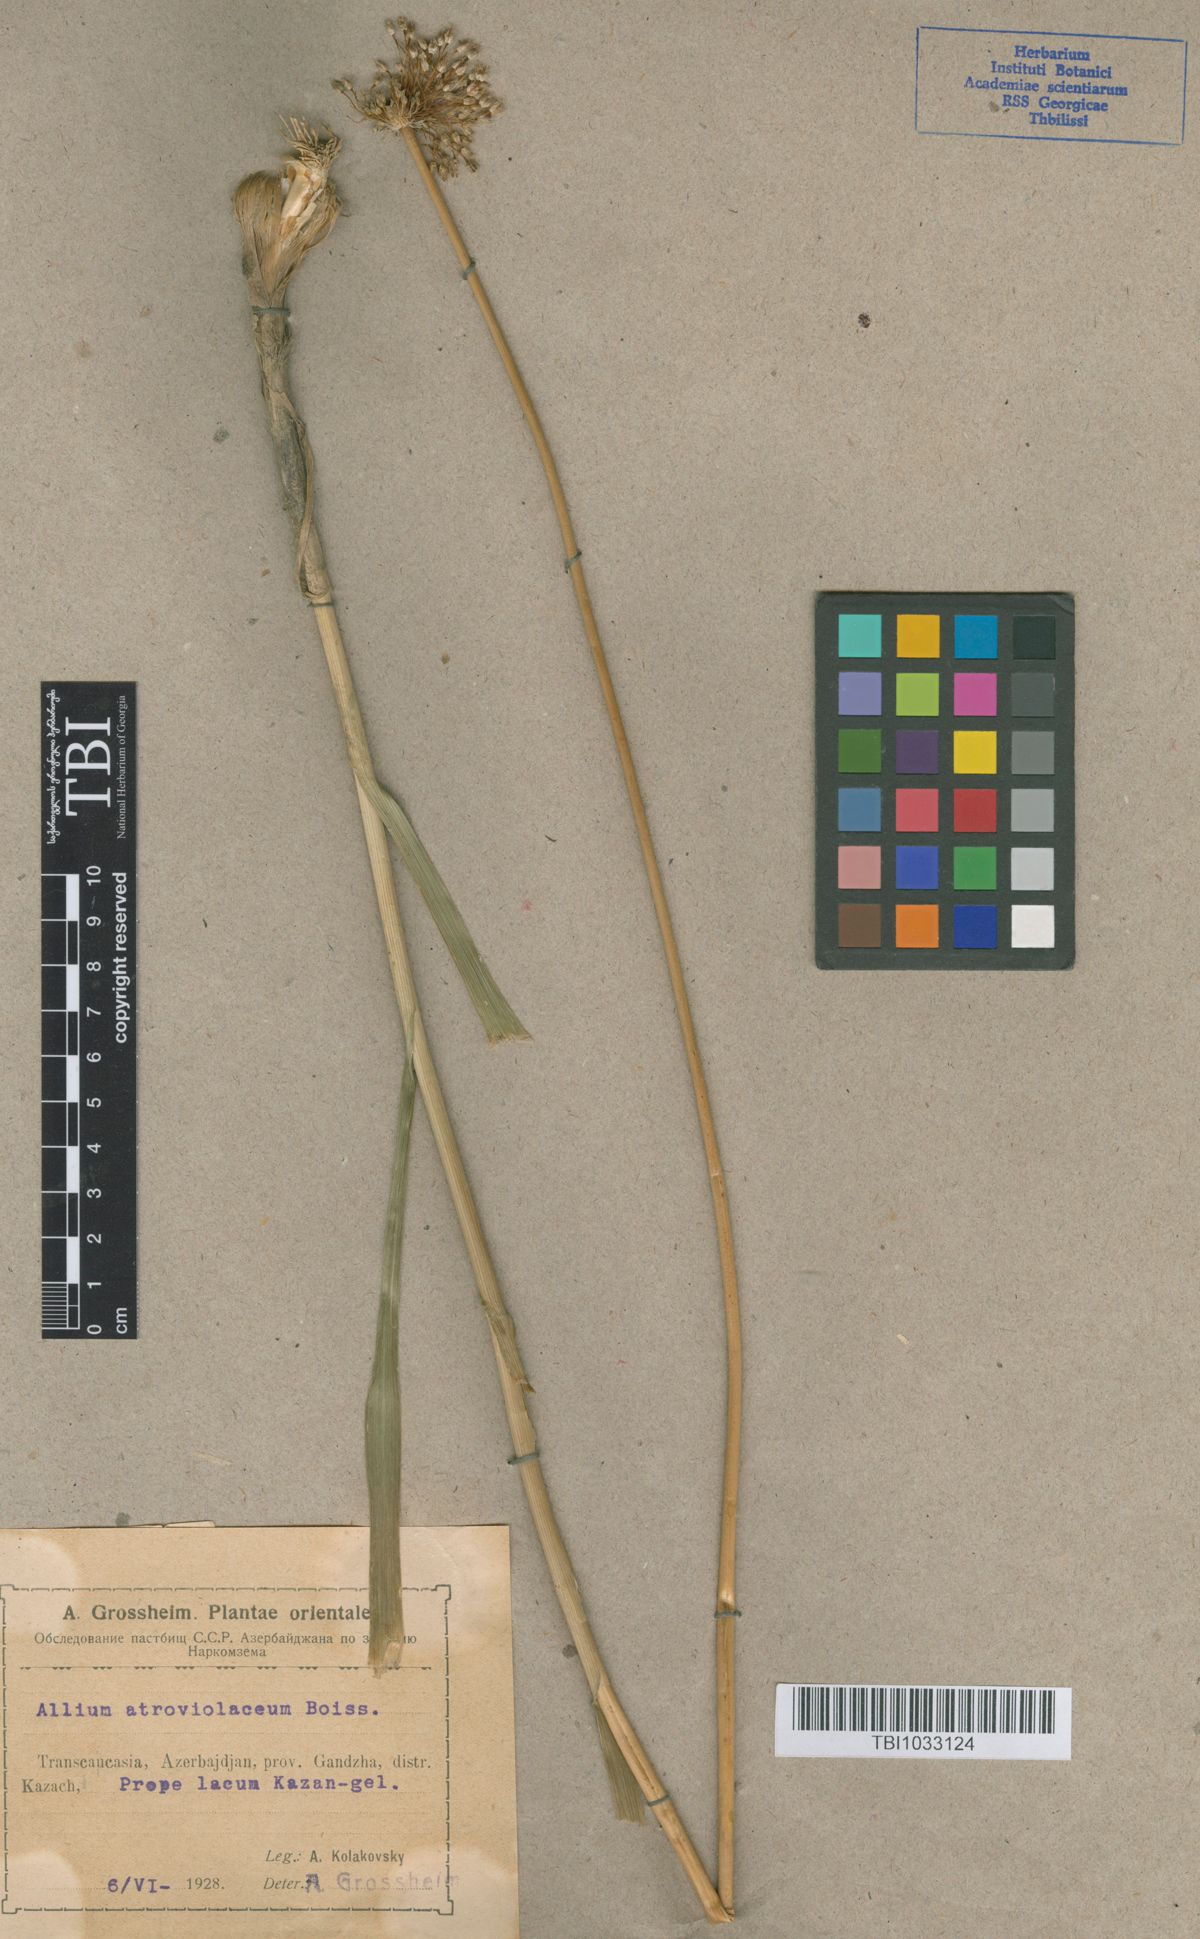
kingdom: Plantae
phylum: Tracheophyta
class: Liliopsida
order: Asparagales
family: Amaryllidaceae
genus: Allium
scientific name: Allium atroviolaceum
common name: Broadleaf wild leek
